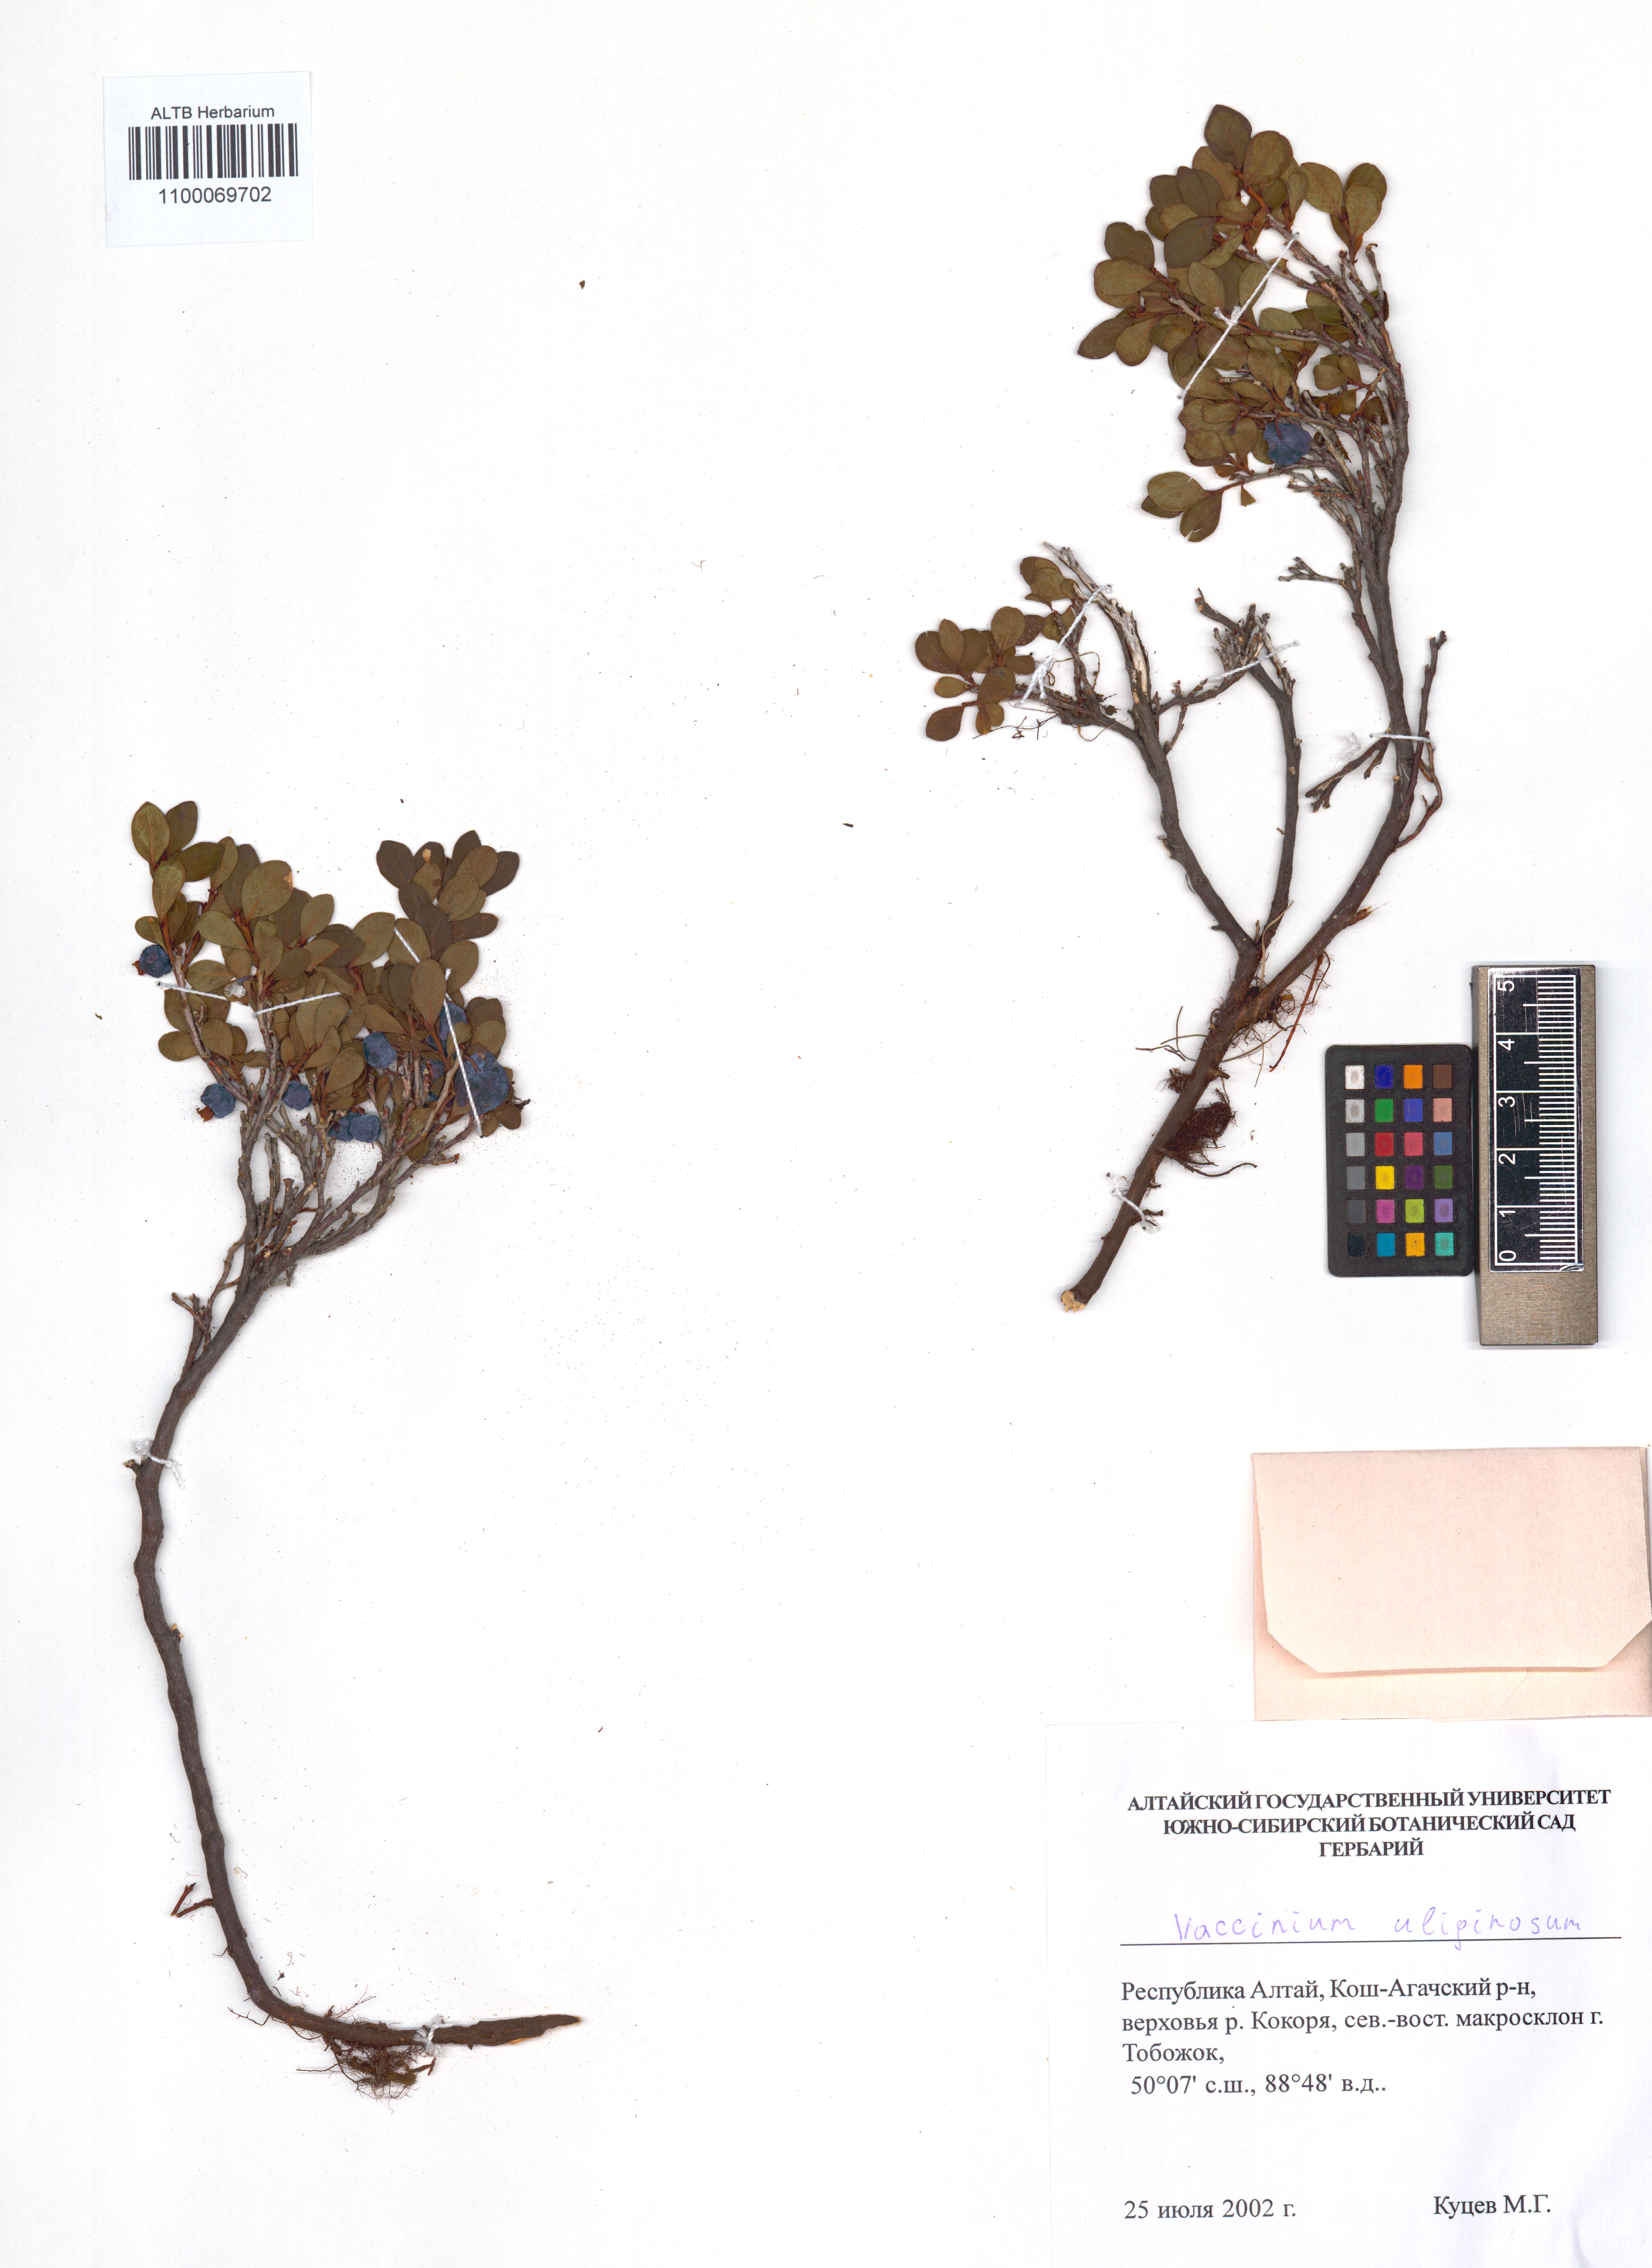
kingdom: Plantae
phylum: Tracheophyta
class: Magnoliopsida
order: Ericales
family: Ericaceae
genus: Vaccinium
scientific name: Vaccinium uliginosum
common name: Bog bilberry
